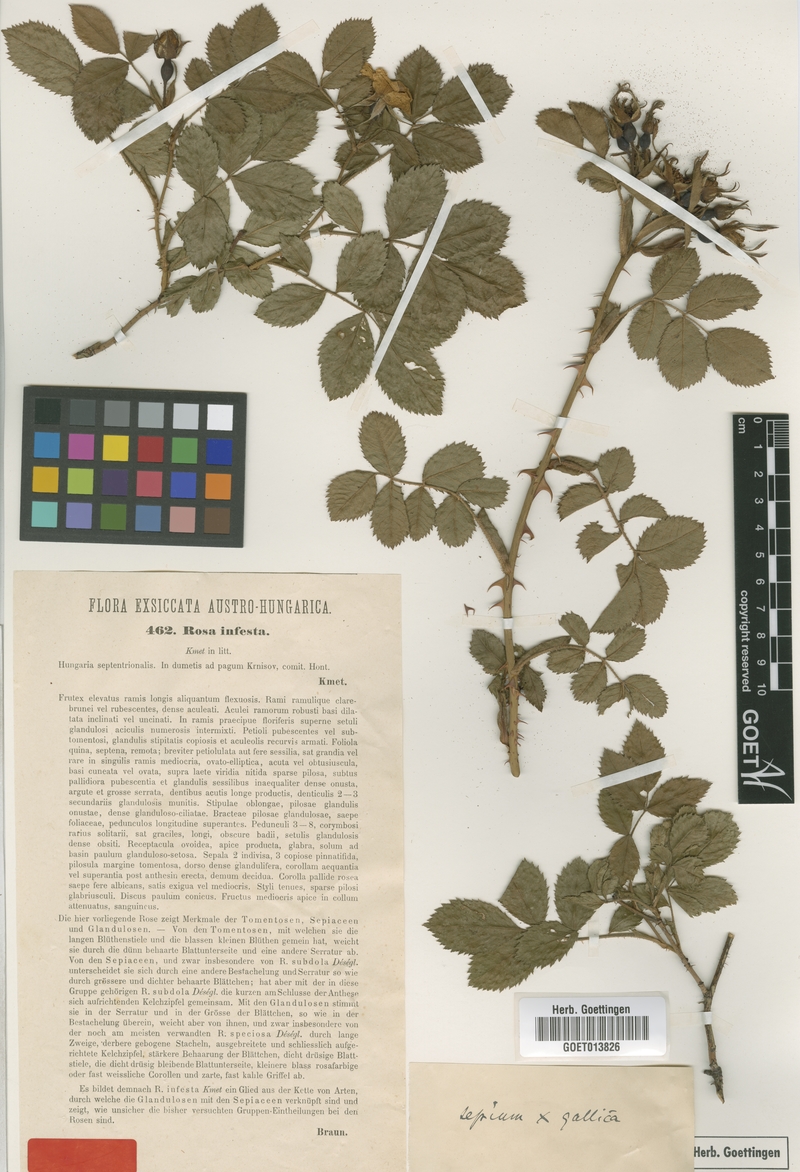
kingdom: Plantae
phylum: Tracheophyta
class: Magnoliopsida
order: Rosales
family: Rosaceae
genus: Rosa
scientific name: Rosa infesta
